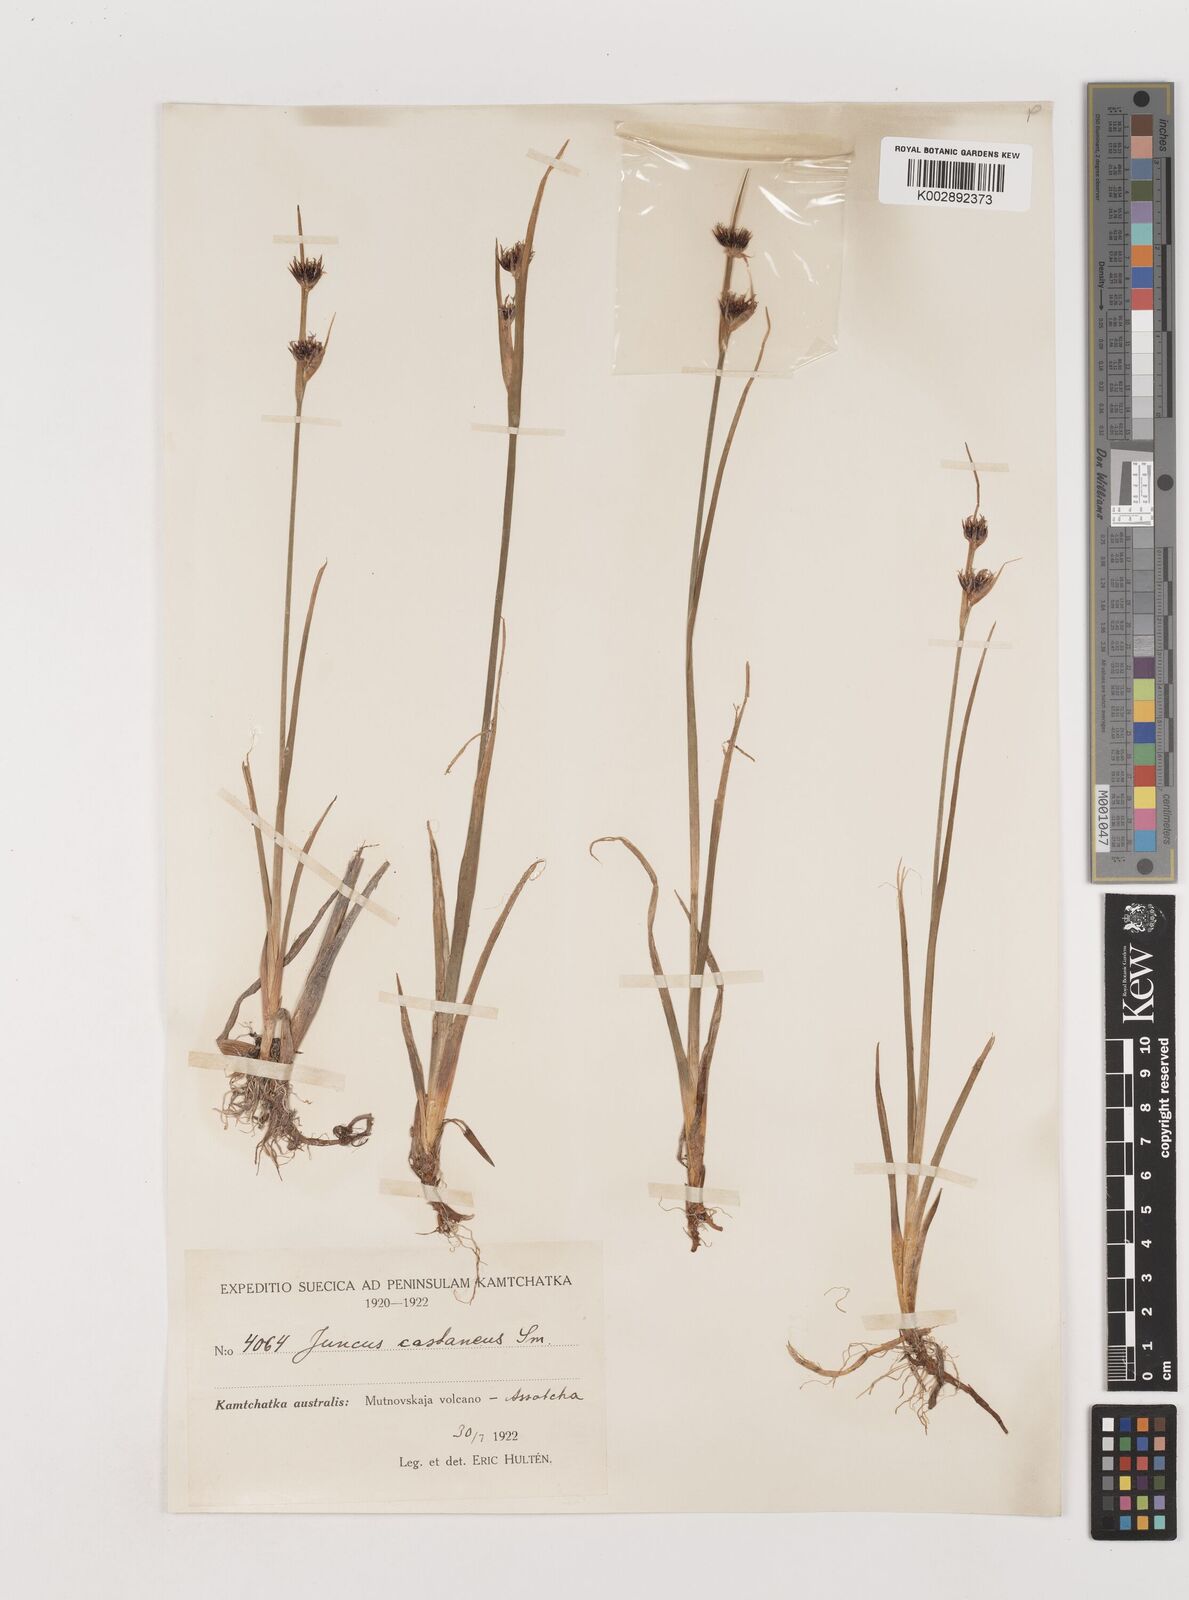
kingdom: Plantae
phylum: Tracheophyta
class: Liliopsida
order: Poales
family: Juncaceae
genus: Juncus
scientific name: Juncus castaneus
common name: Chestnut rush
